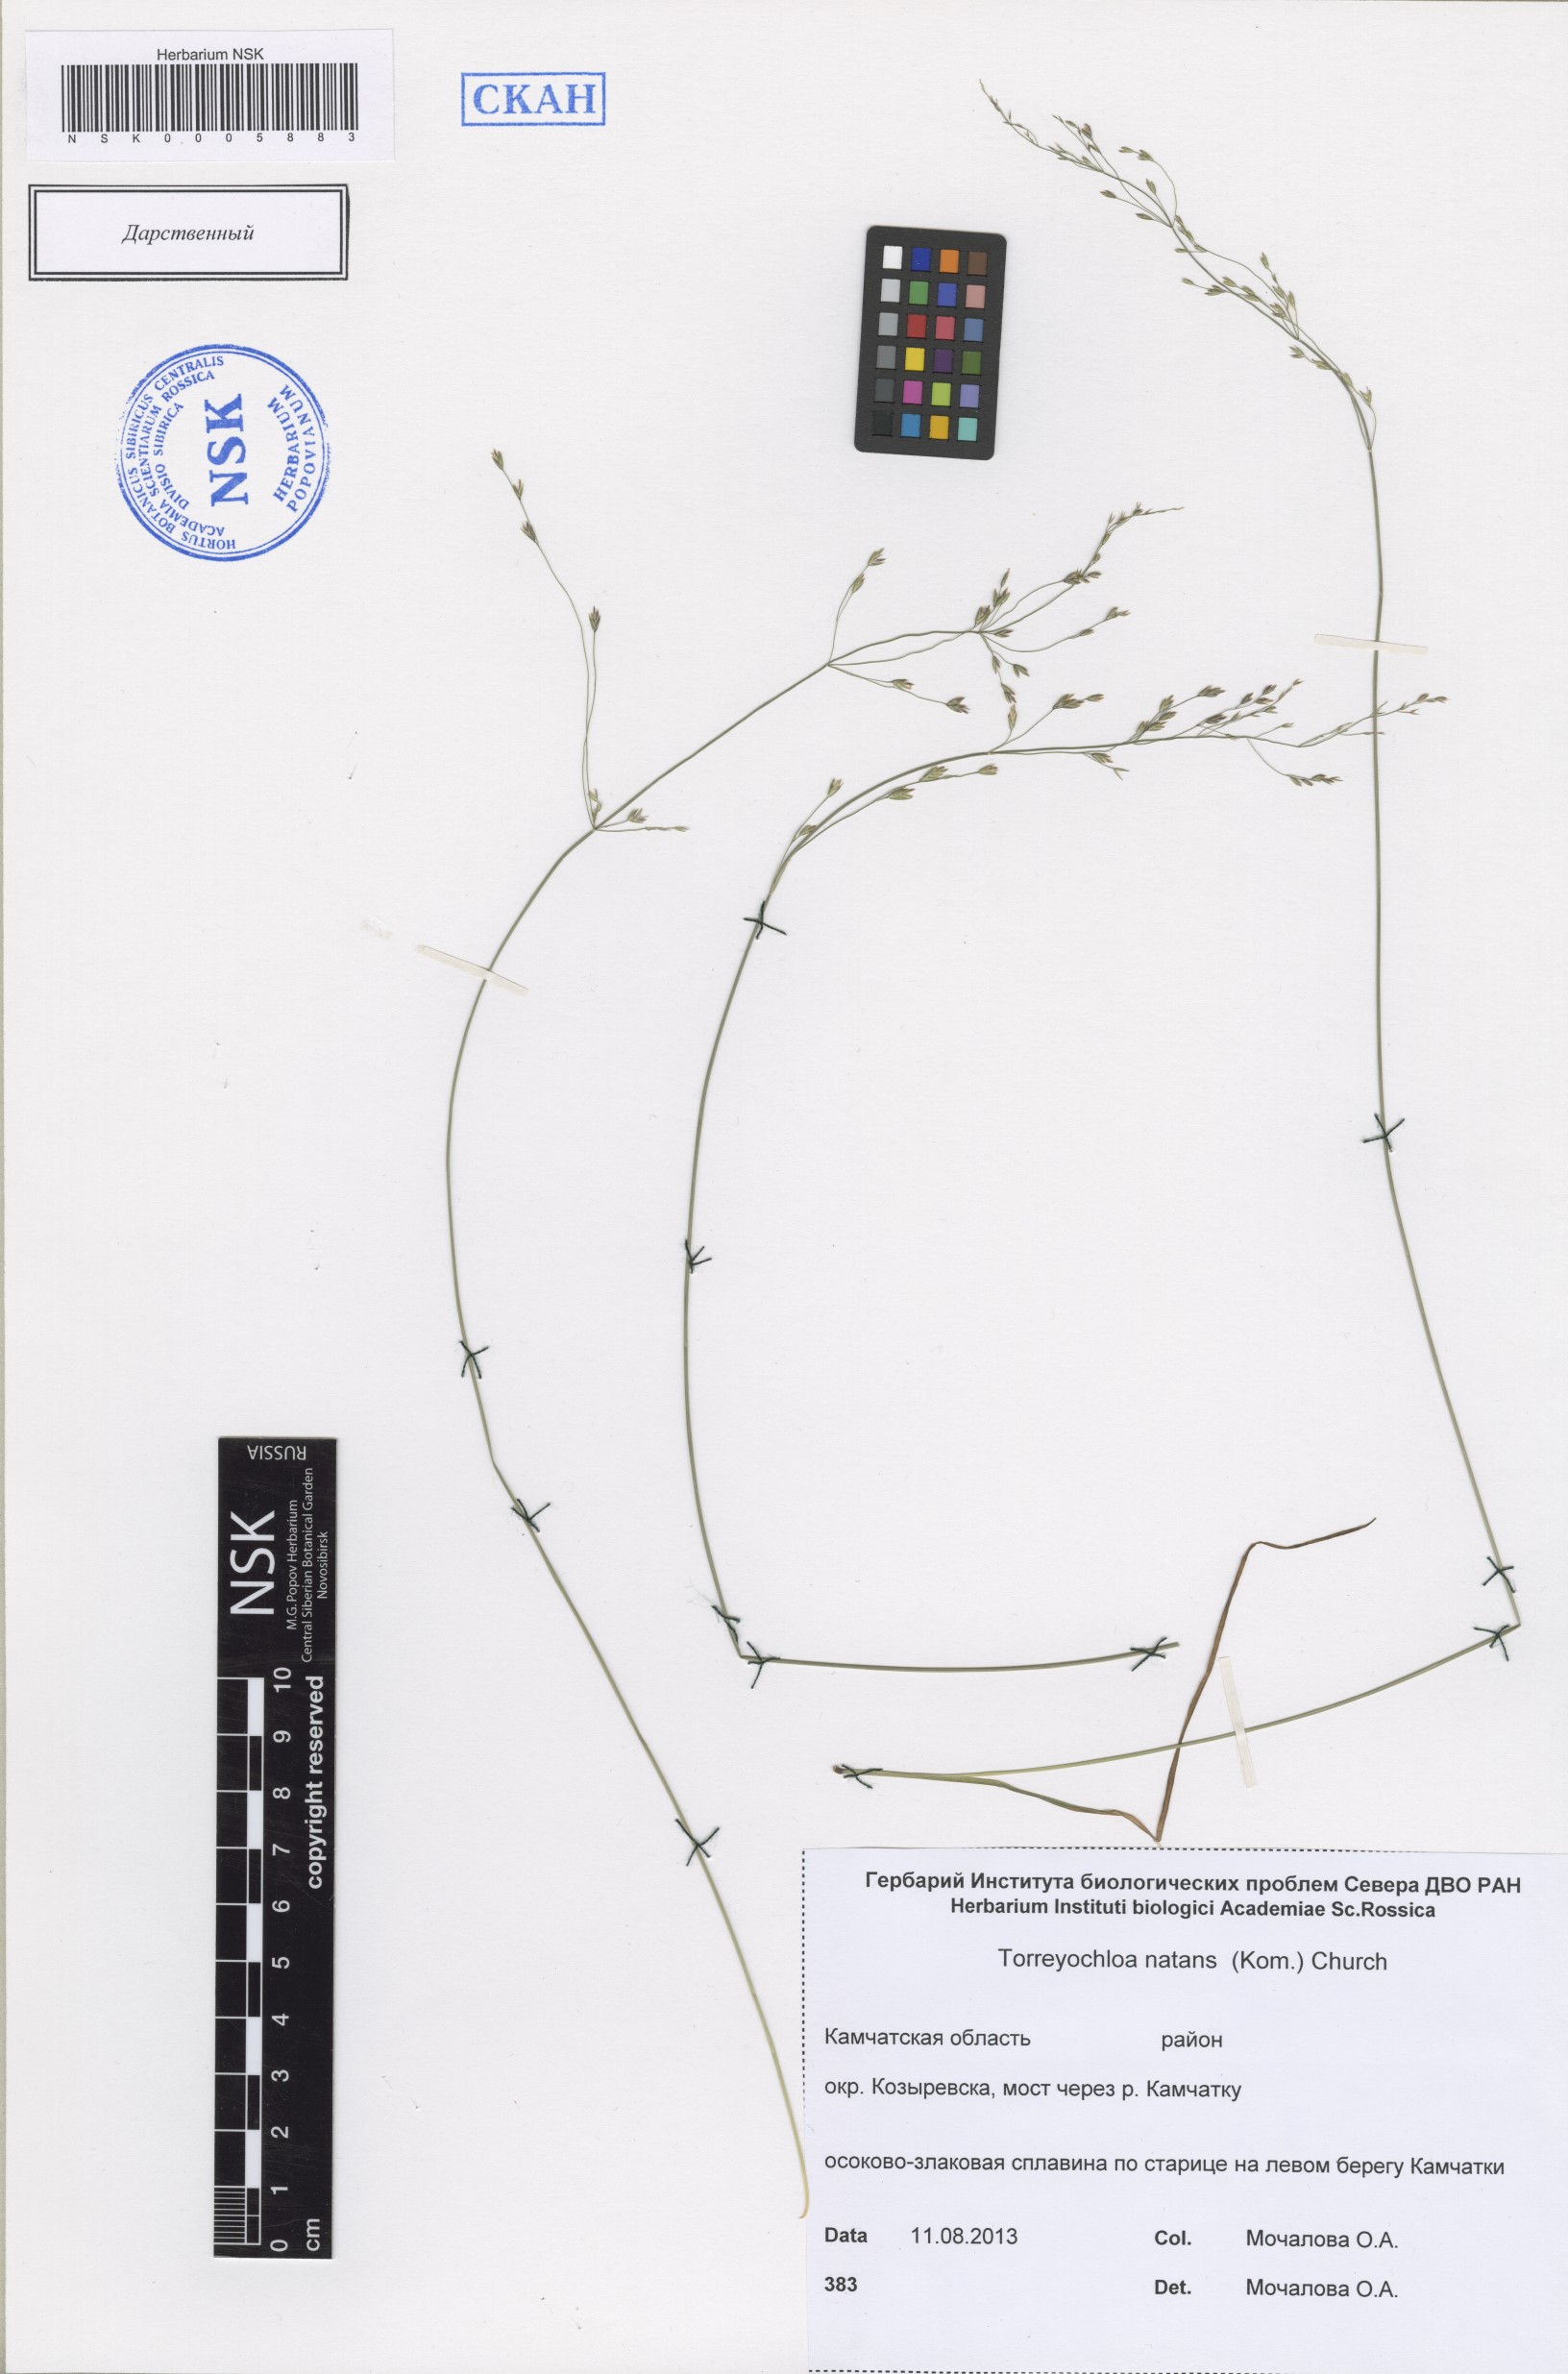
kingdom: Plantae
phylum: Tracheophyta
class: Liliopsida
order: Poales
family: Poaceae
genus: Torreyochloa
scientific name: Torreyochloa natans
